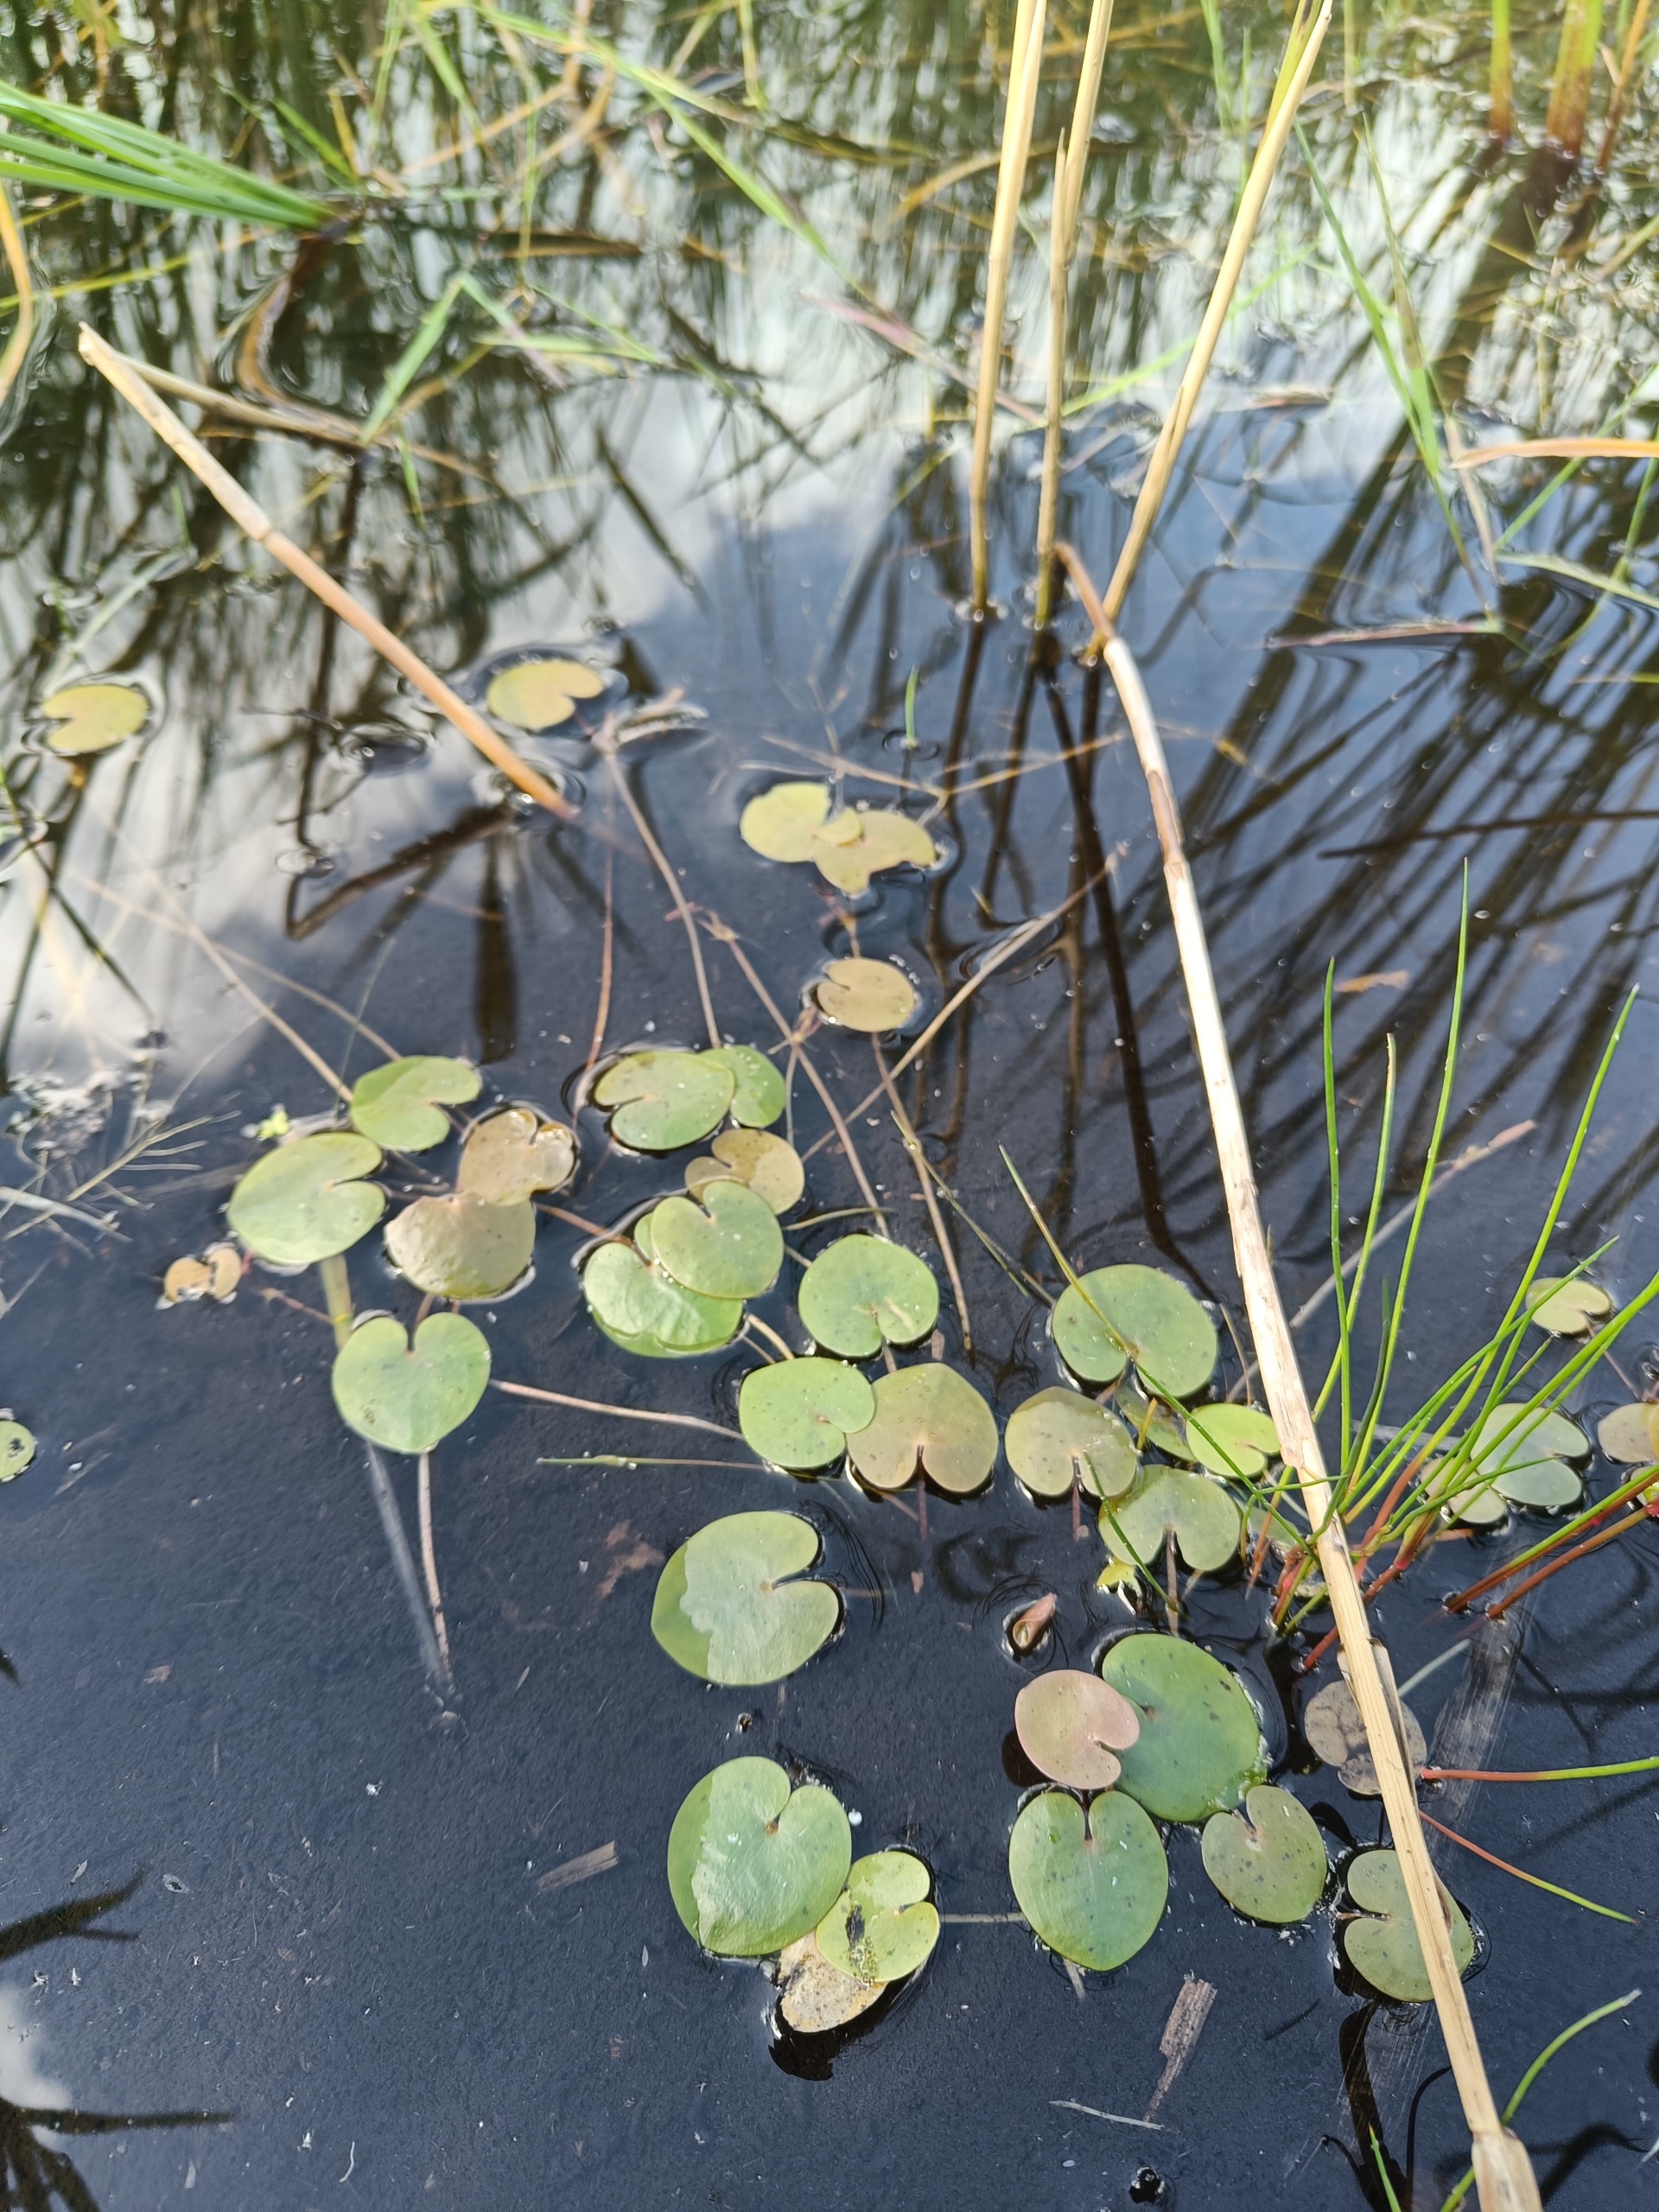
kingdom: Plantae
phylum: Tracheophyta
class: Liliopsida
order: Alismatales
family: Hydrocharitaceae
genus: Hydrocharis
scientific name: Hydrocharis morsus-ranae
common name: Frøbid
